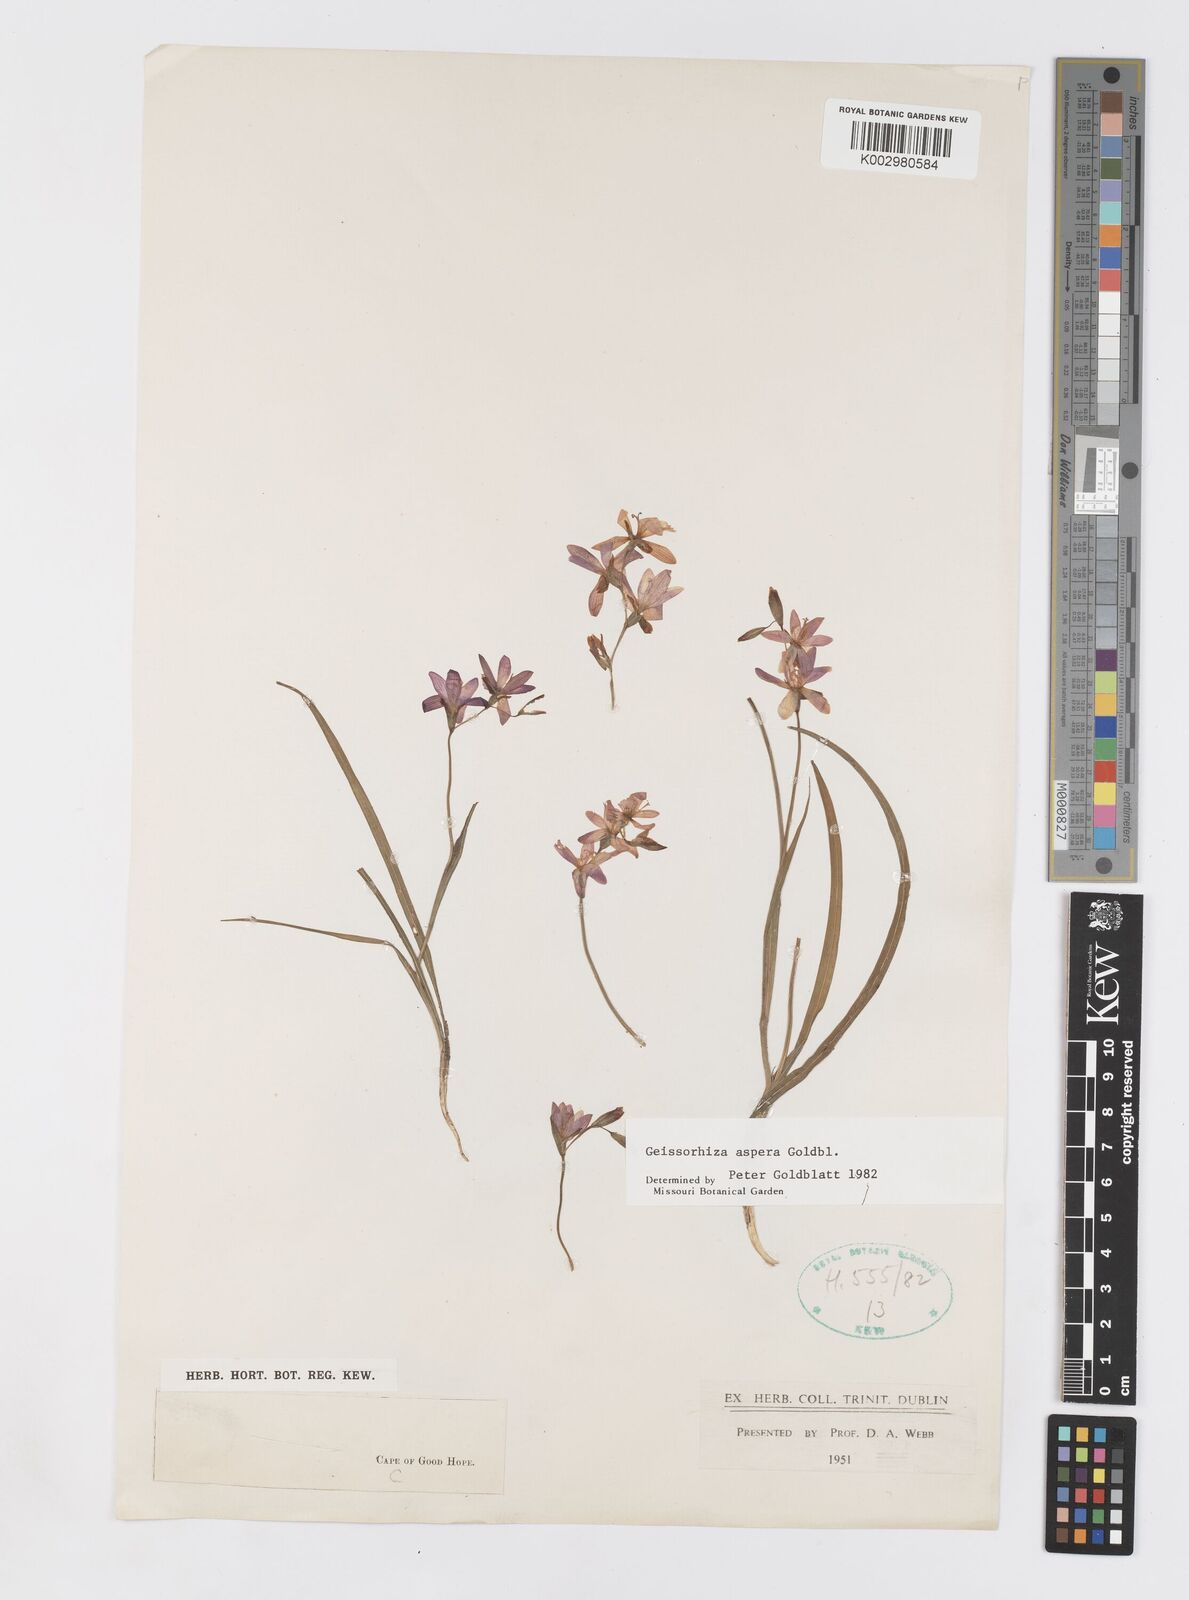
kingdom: Plantae
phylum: Tracheophyta
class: Liliopsida
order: Asparagales
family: Iridaceae
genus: Geissorhiza
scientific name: Geissorhiza aspera
